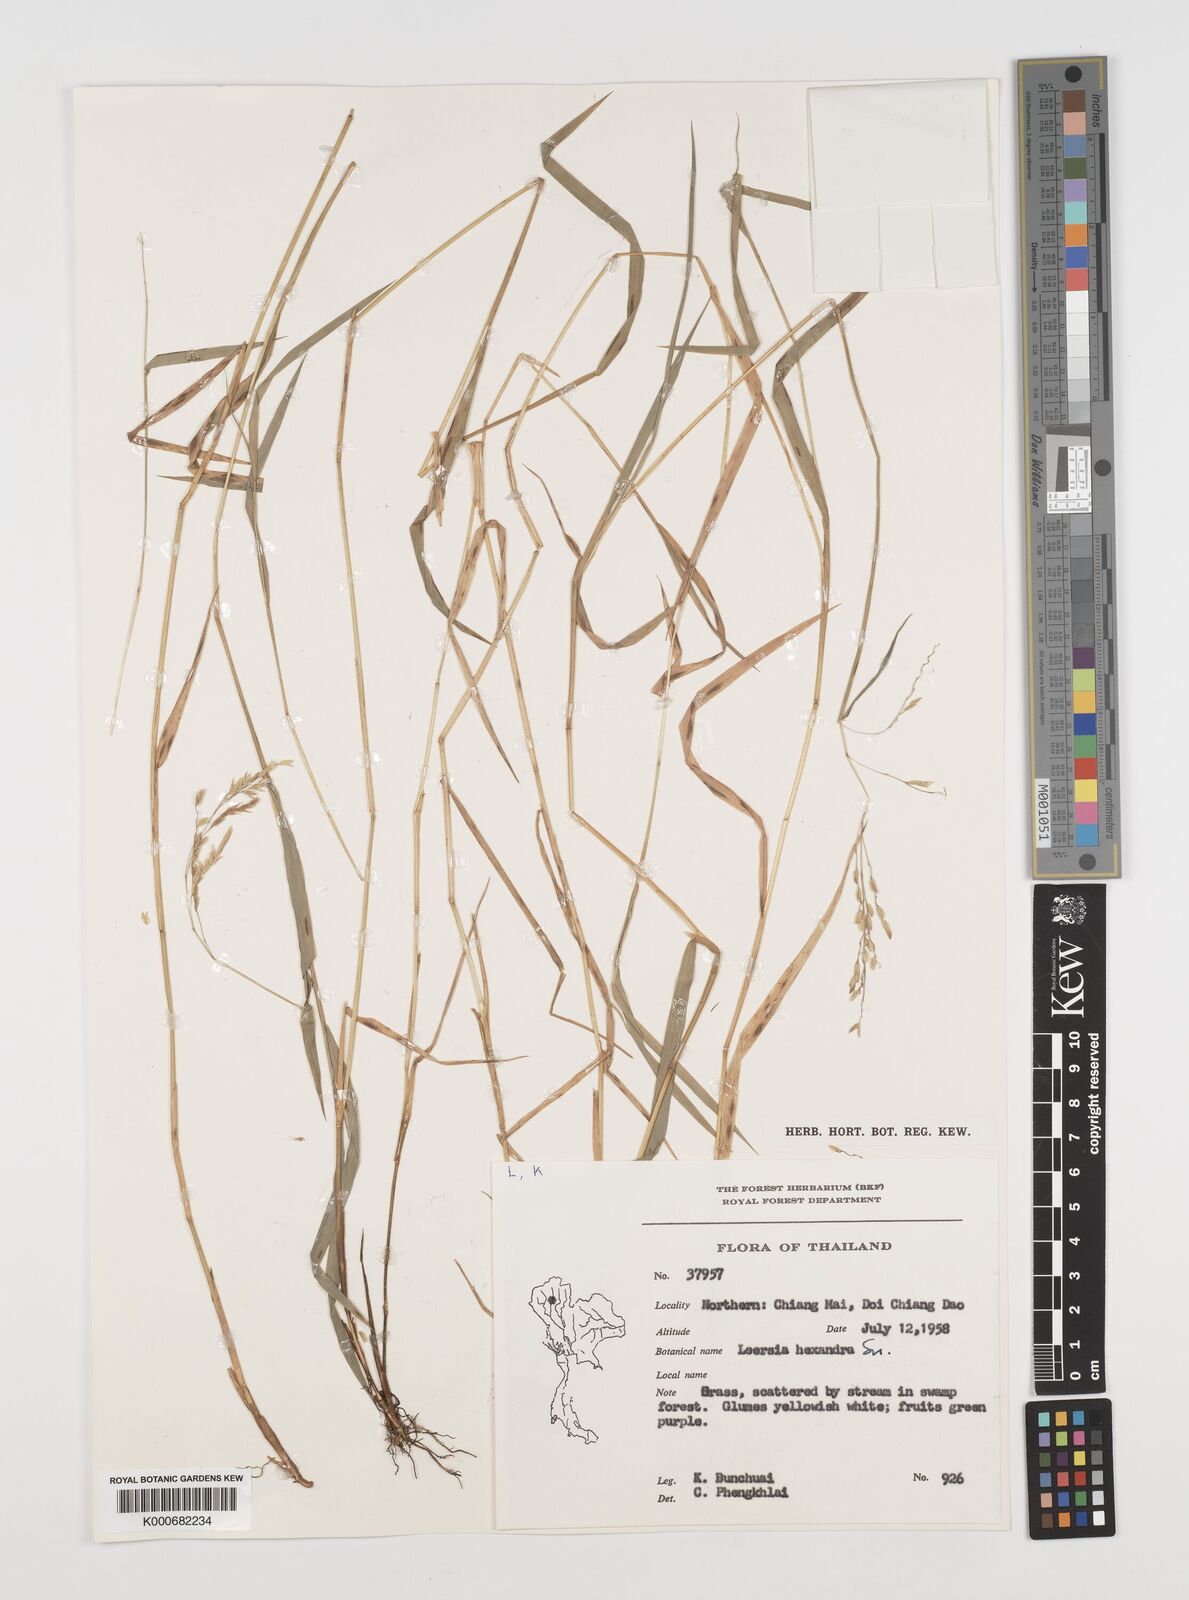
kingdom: Plantae
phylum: Tracheophyta
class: Liliopsida
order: Poales
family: Poaceae
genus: Leersia
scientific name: Leersia hexandra
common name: Southern cut grass
